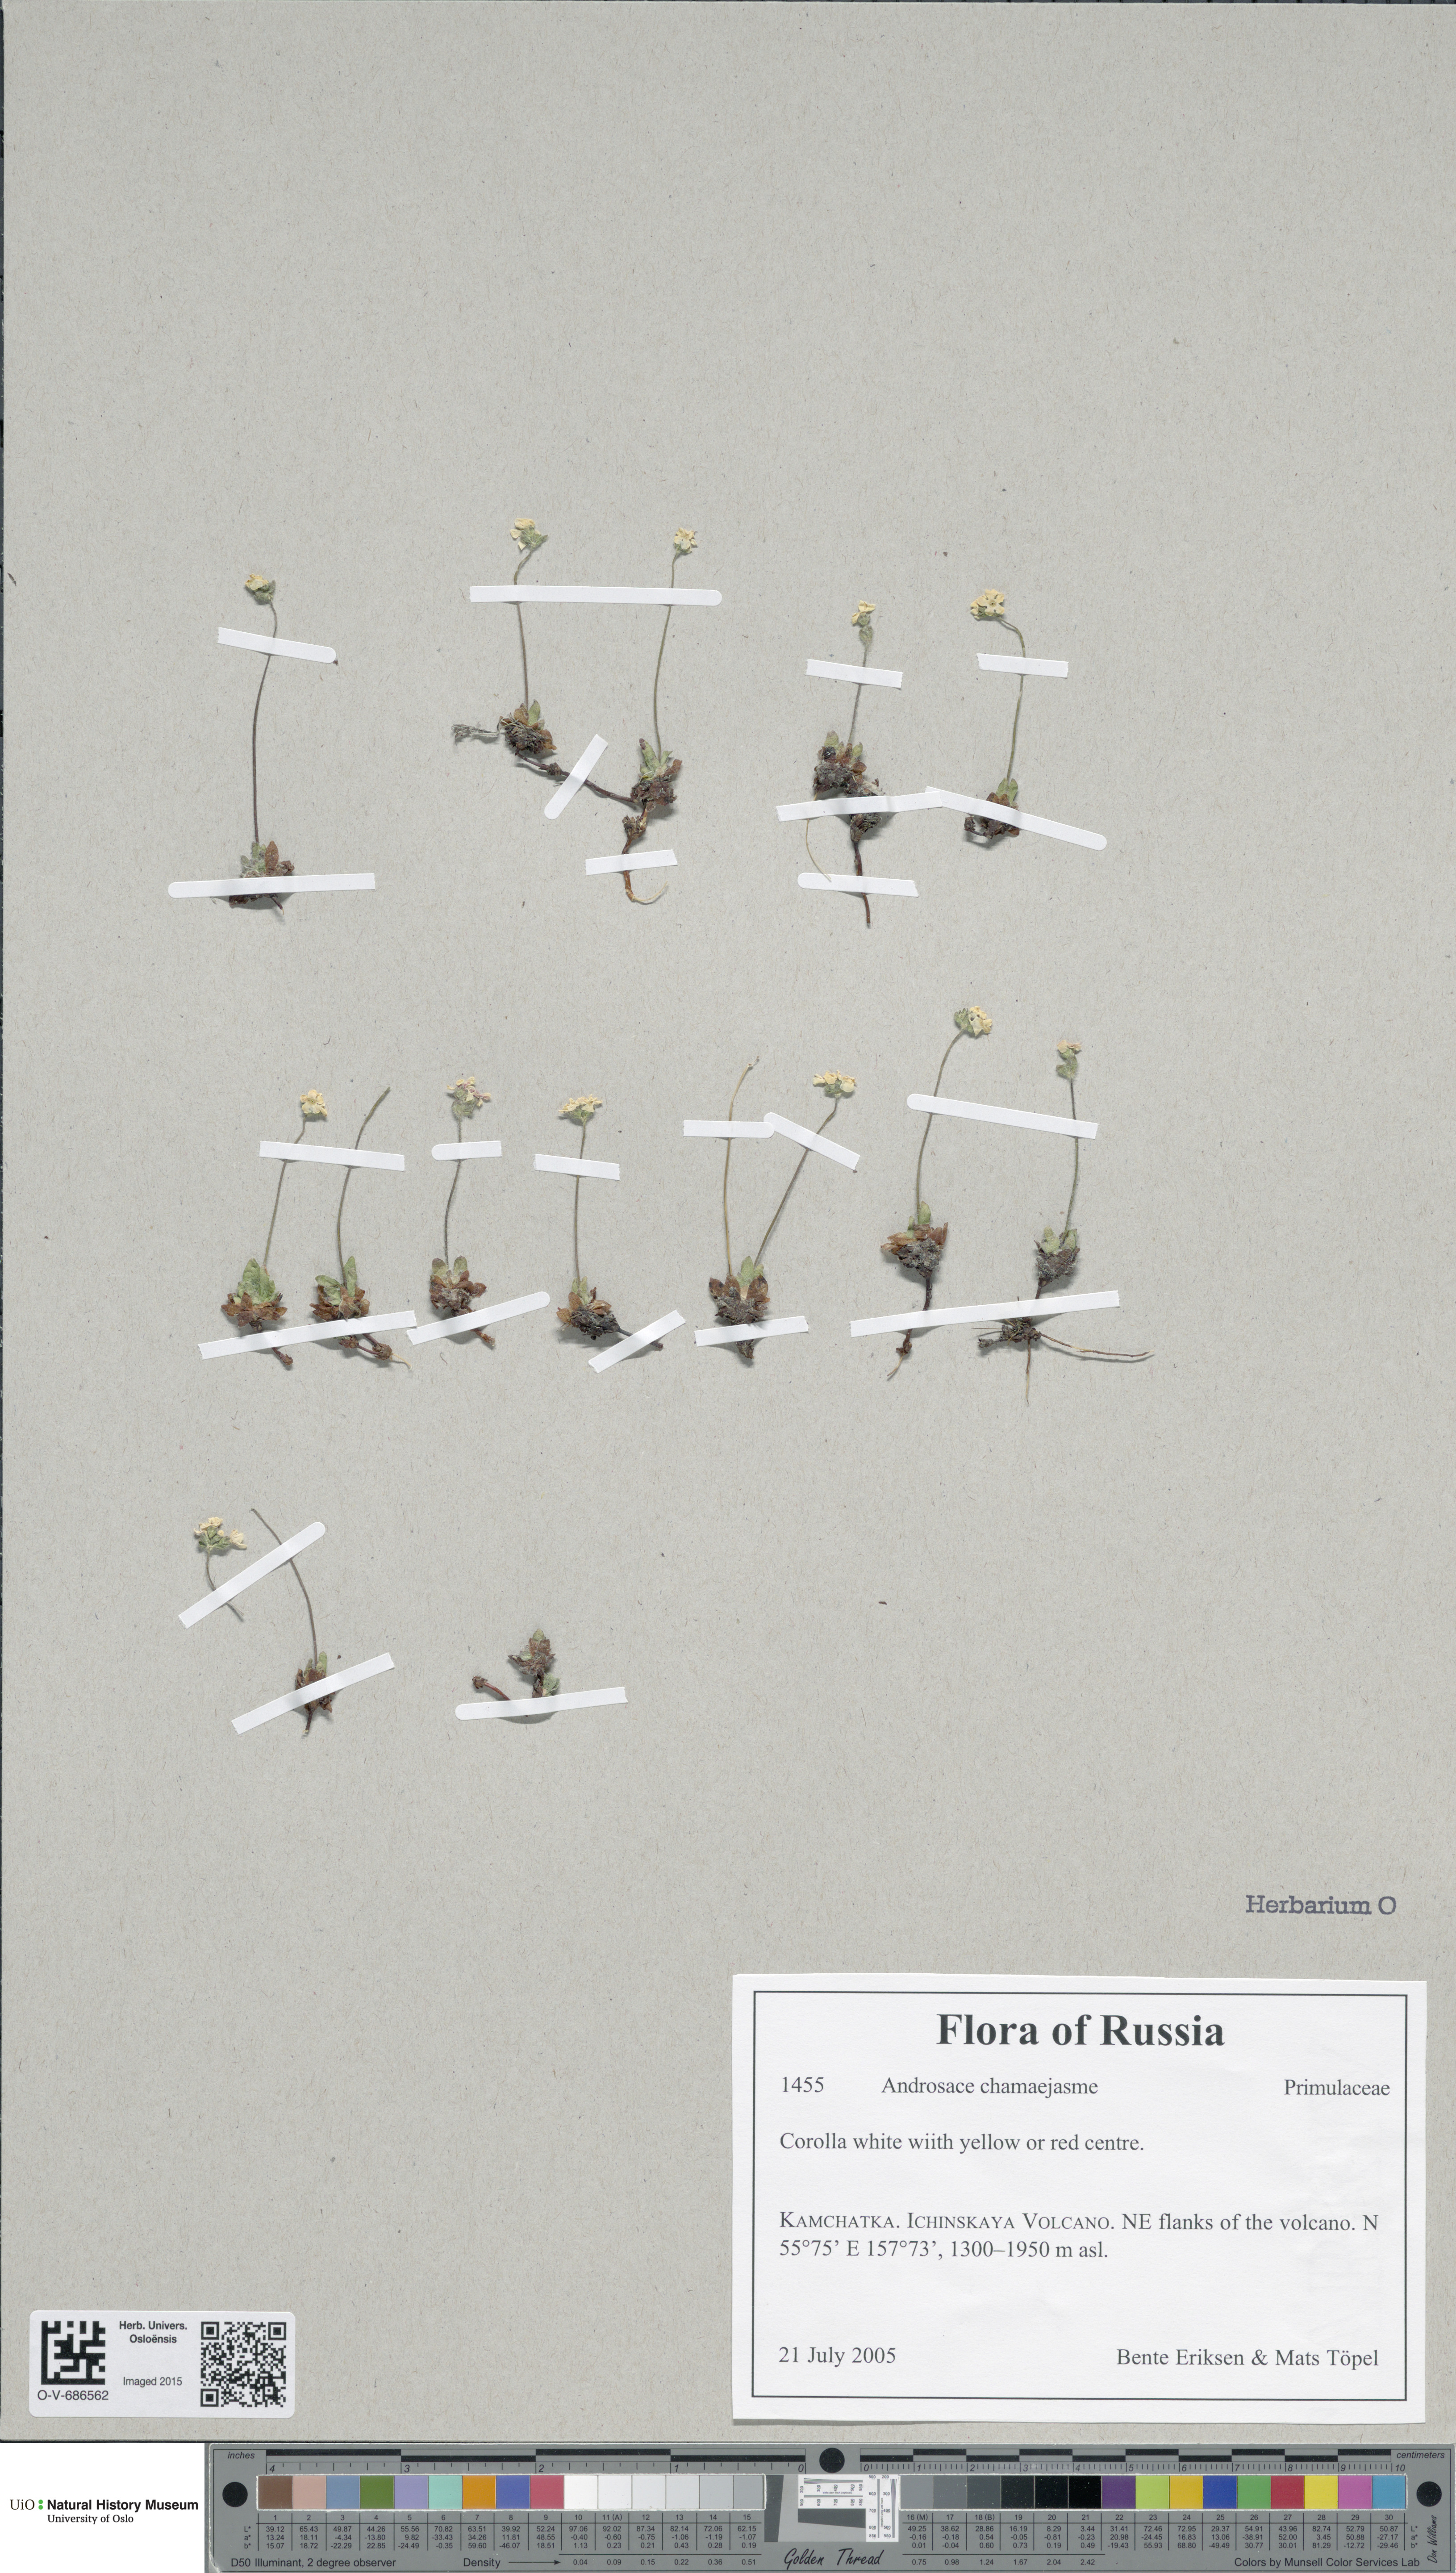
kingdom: Plantae
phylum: Tracheophyta
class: Magnoliopsida
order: Ericales
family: Primulaceae
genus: Androsace
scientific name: Androsace chamaejasme
